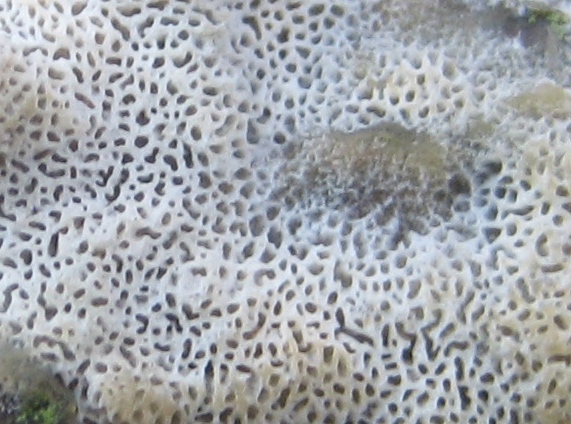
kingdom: Fungi
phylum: Basidiomycota
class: Agaricomycetes
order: Polyporales
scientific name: Polyporales
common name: poresvampordenen
